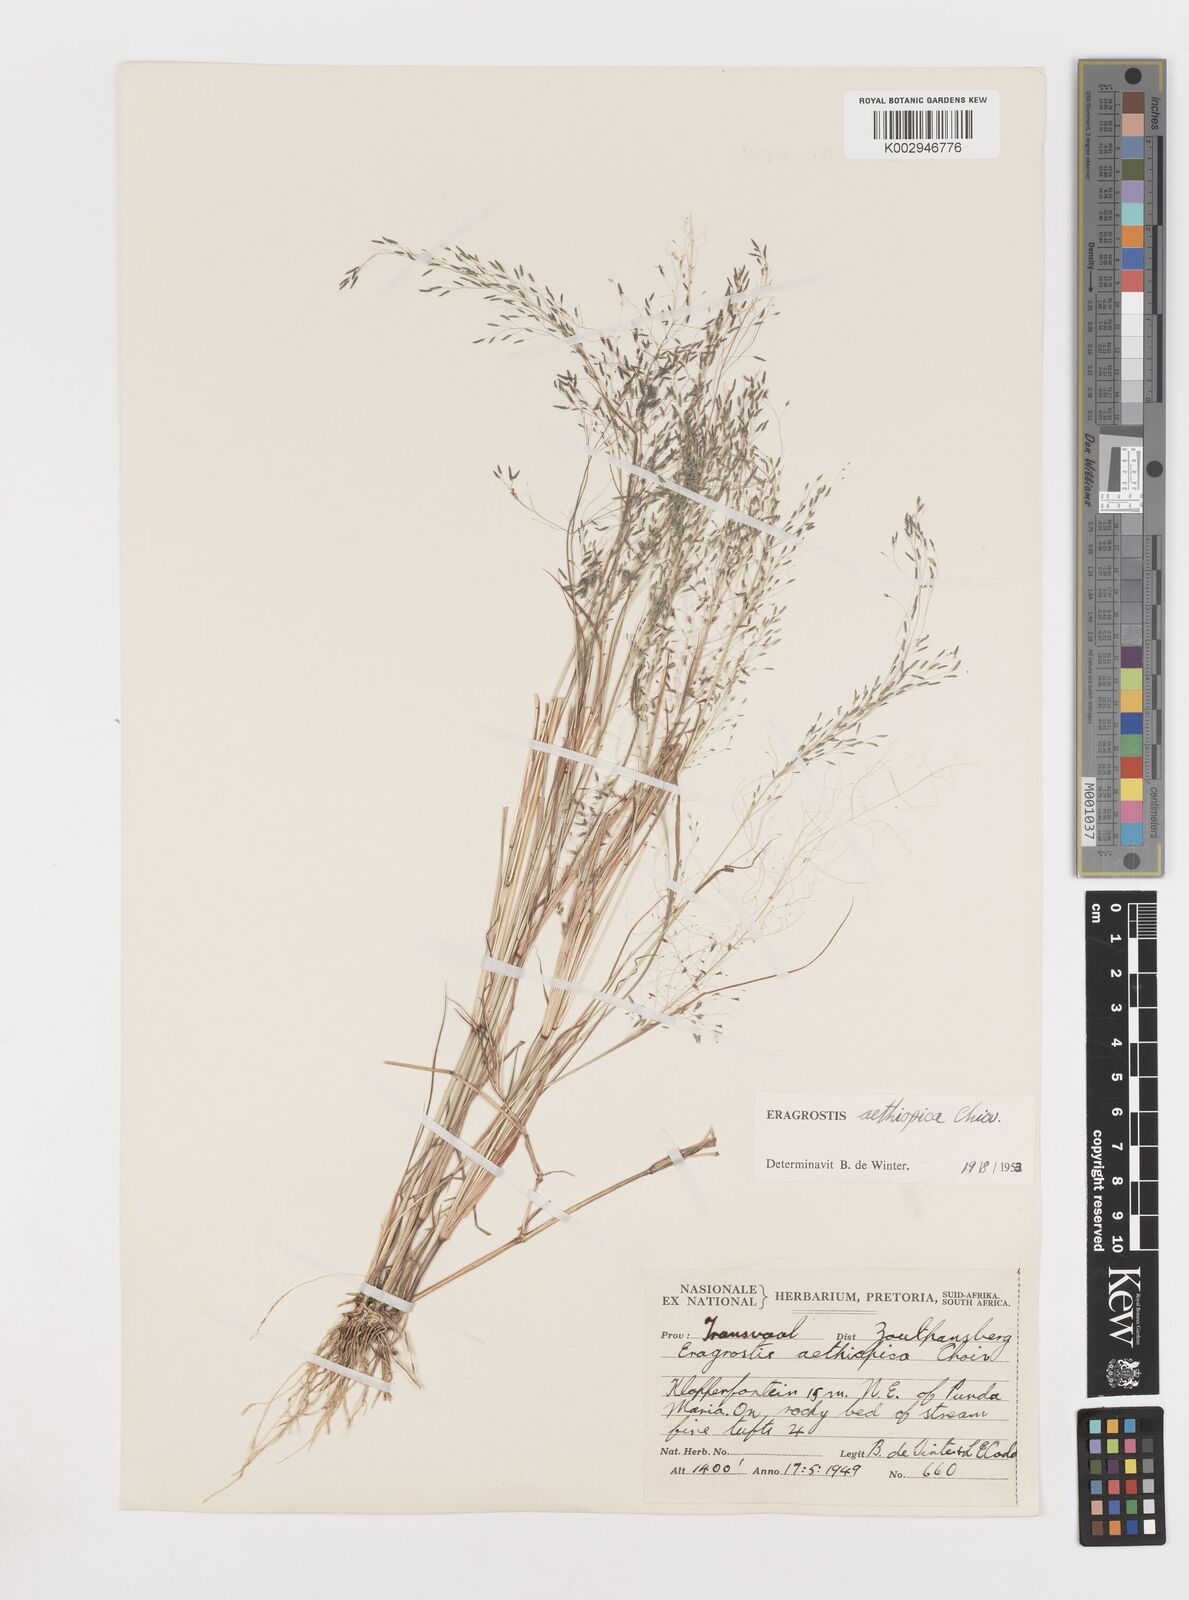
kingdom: Plantae
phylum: Tracheophyta
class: Liliopsida
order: Poales
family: Poaceae
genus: Eragrostis
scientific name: Eragrostis aethiopica
